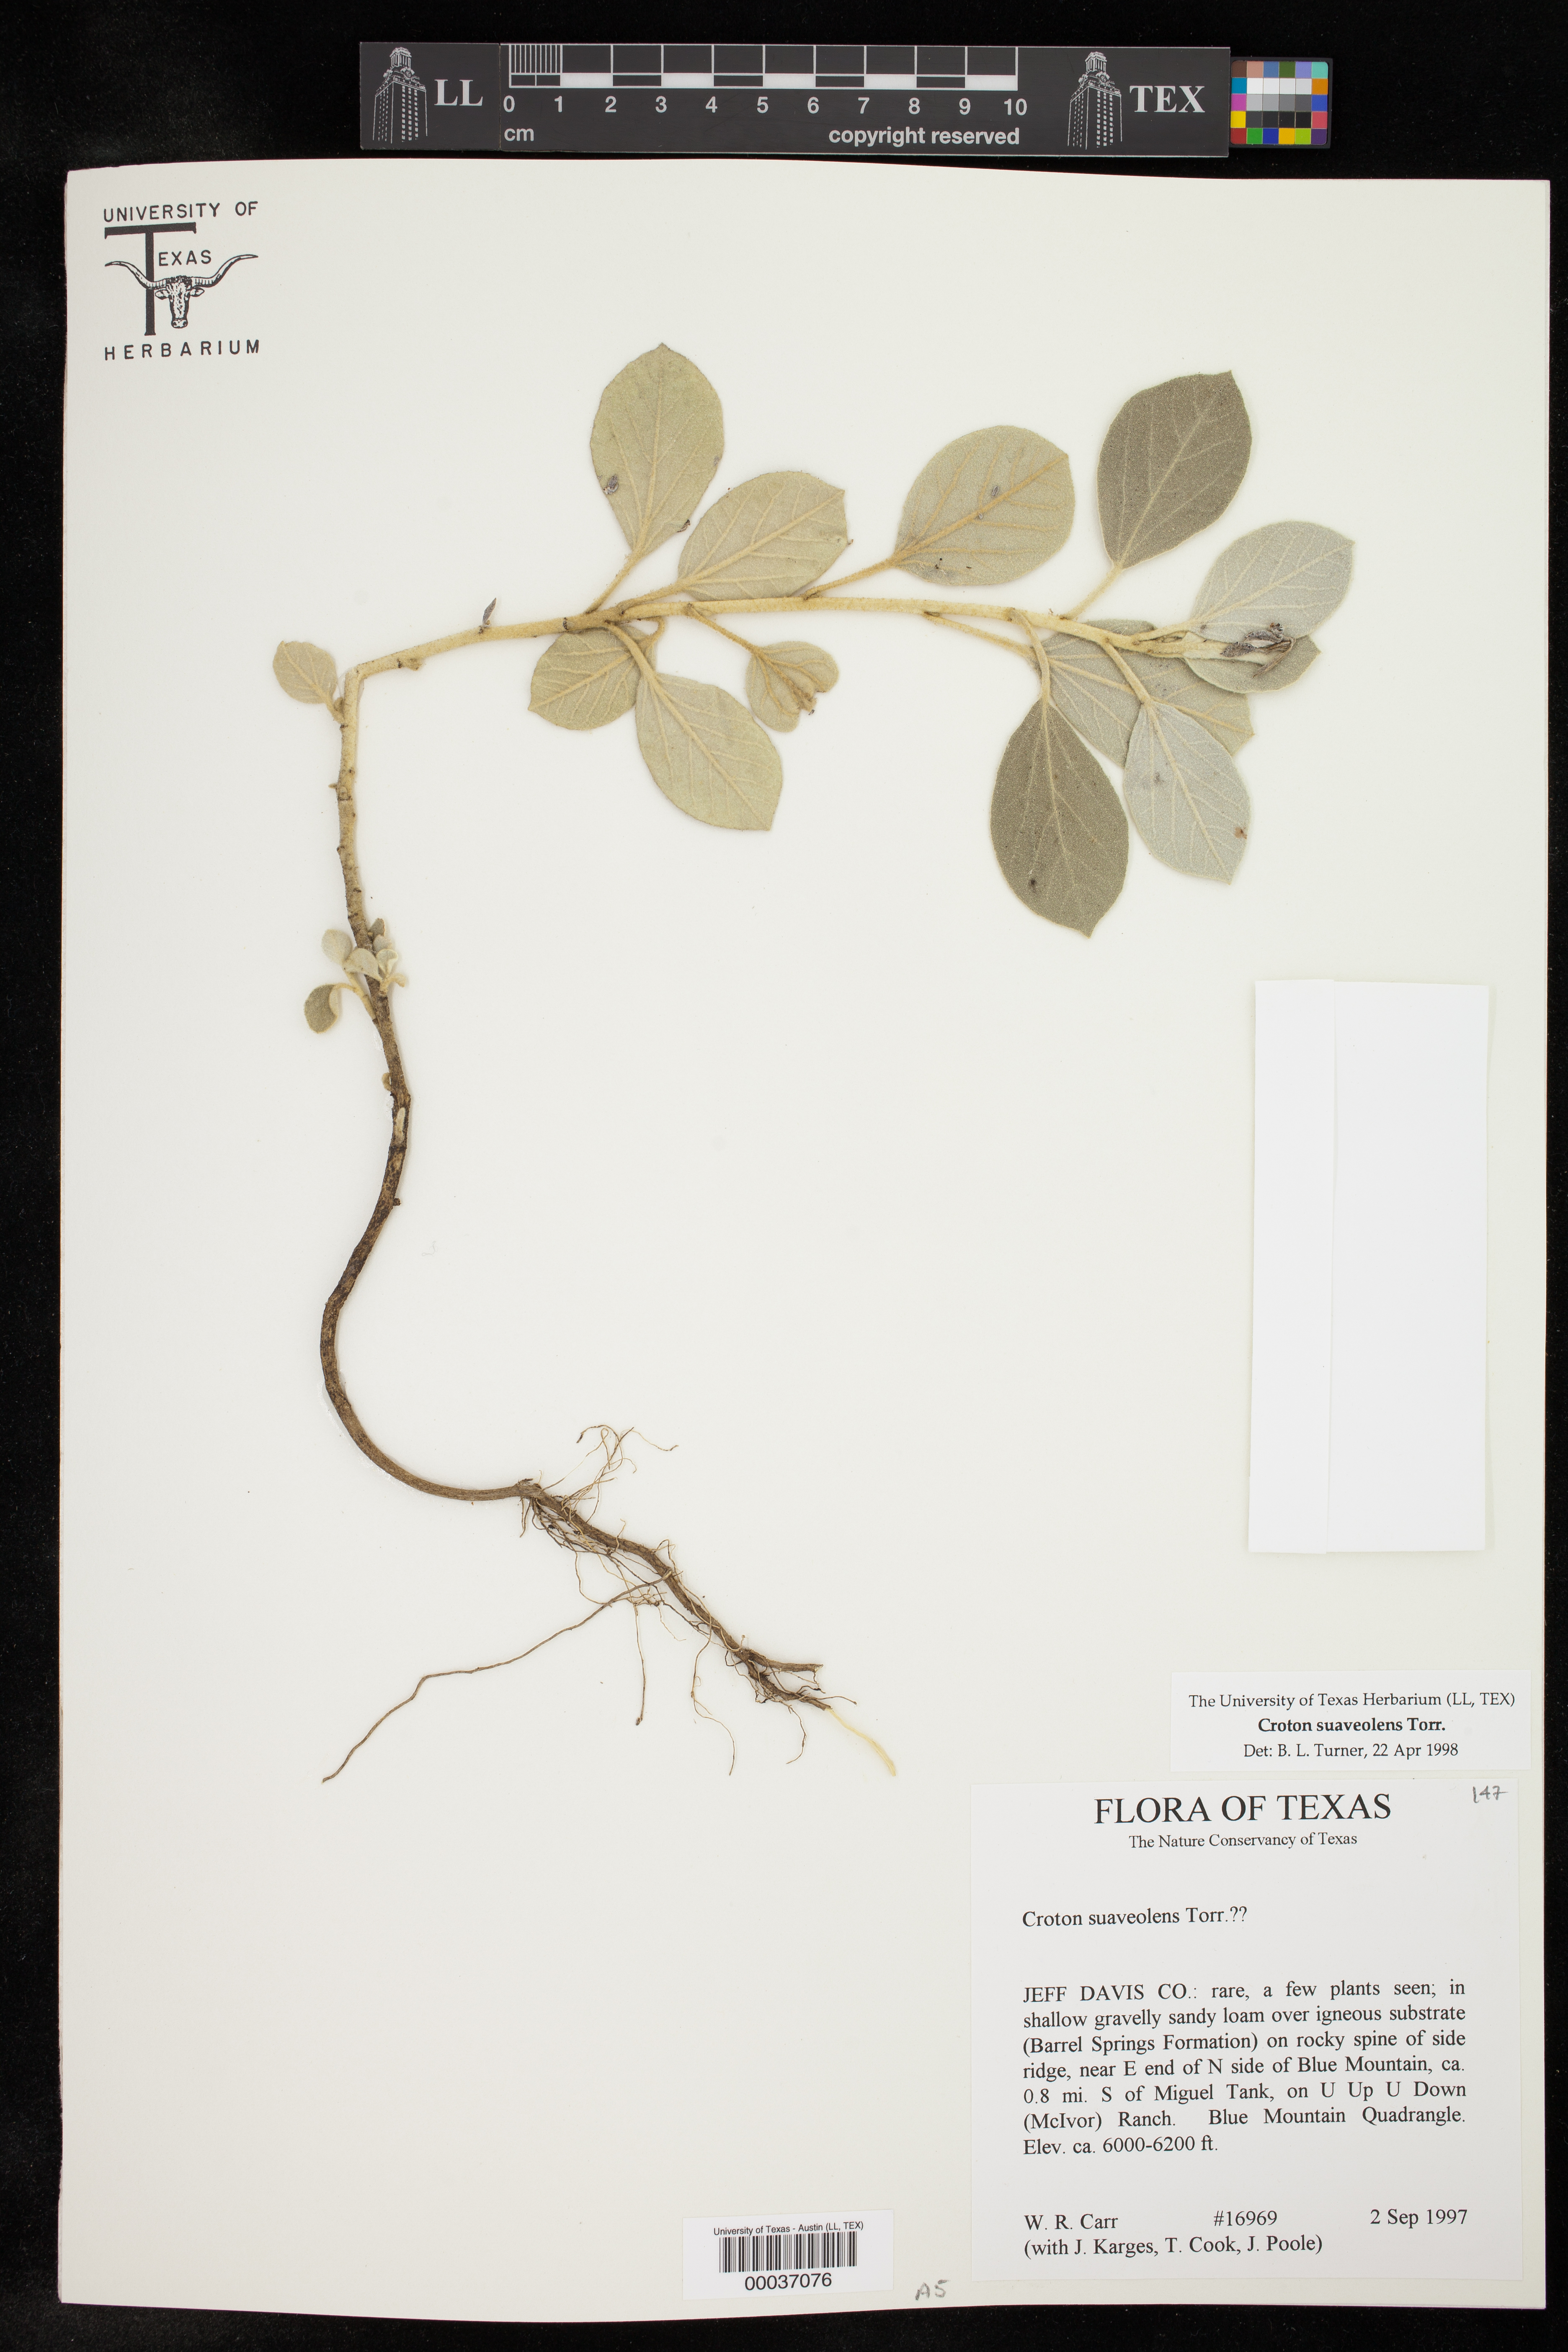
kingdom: Plantae
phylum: Tracheophyta
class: Magnoliopsida
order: Malpighiales
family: Euphorbiaceae
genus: Croton
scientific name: Croton suaveolens
